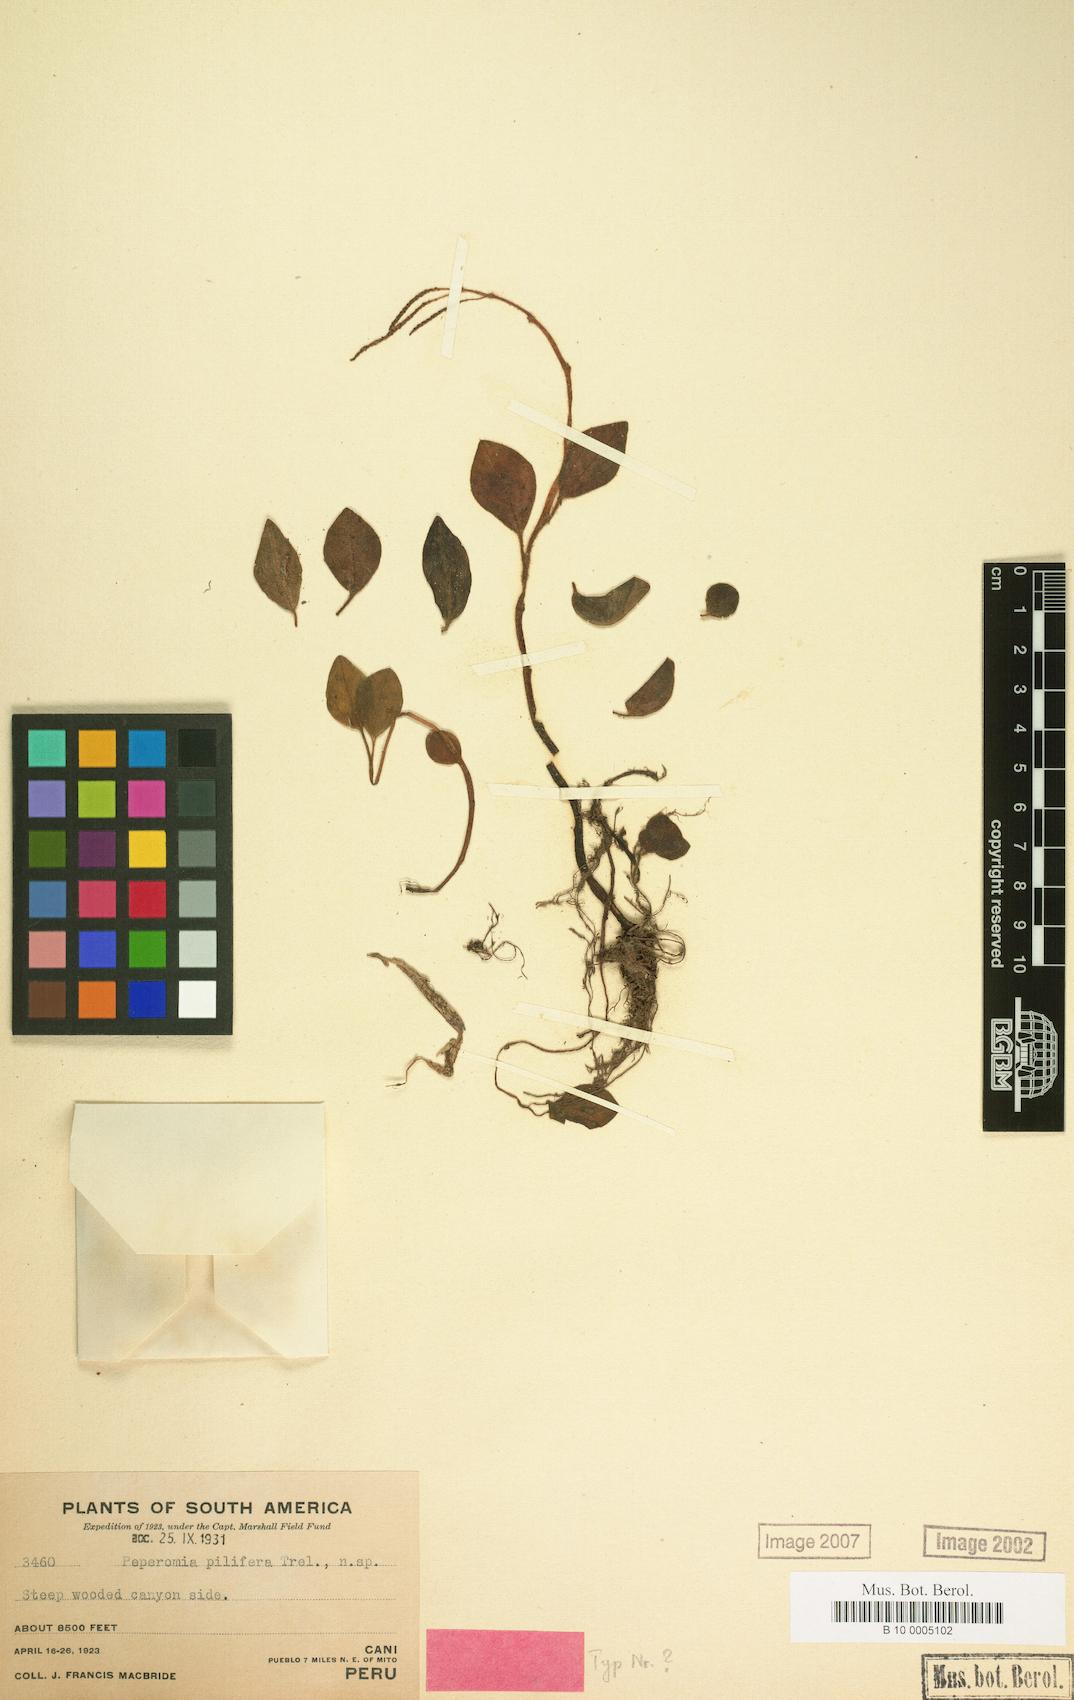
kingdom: Plantae
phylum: Tracheophyta
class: Magnoliopsida
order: Piperales
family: Piperaceae
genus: Peperomia
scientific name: Peperomia pilifera
